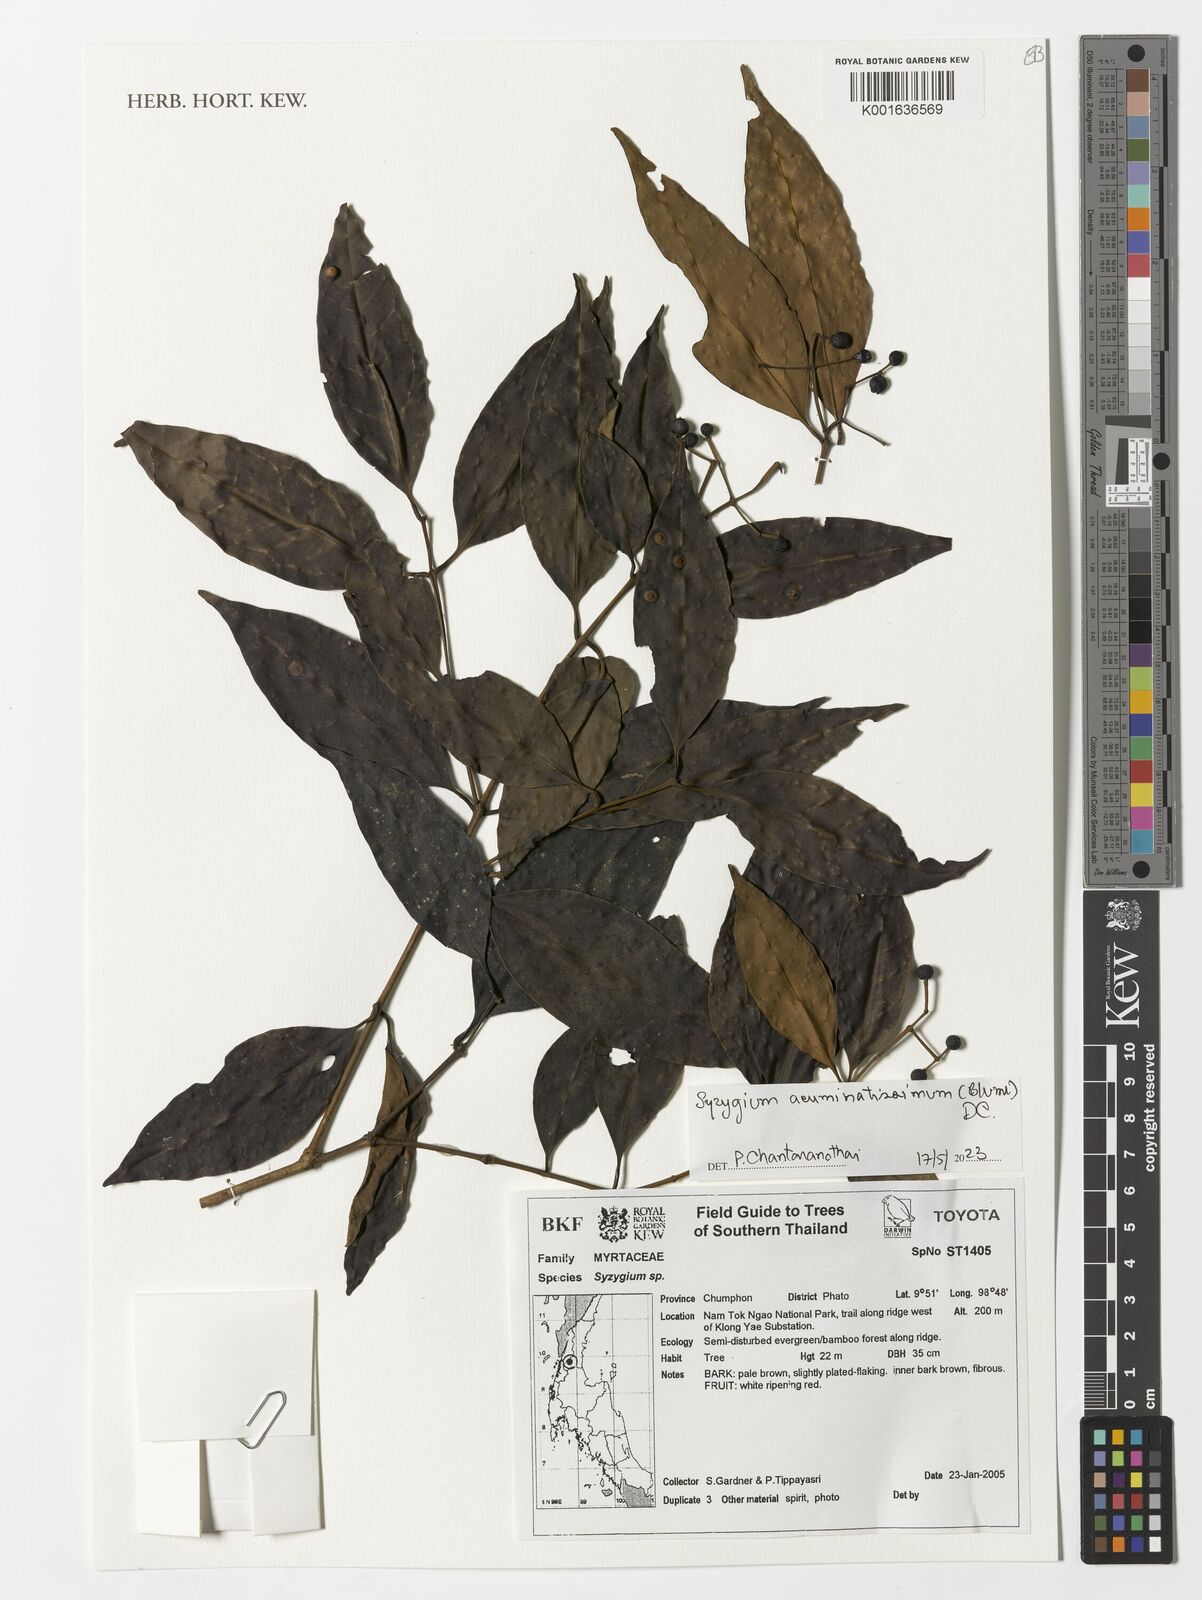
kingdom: Plantae
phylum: Tracheophyta
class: Magnoliopsida
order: Myrtales
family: Myrtaceae
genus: Syzygium
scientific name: Syzygium acuminatissimum
